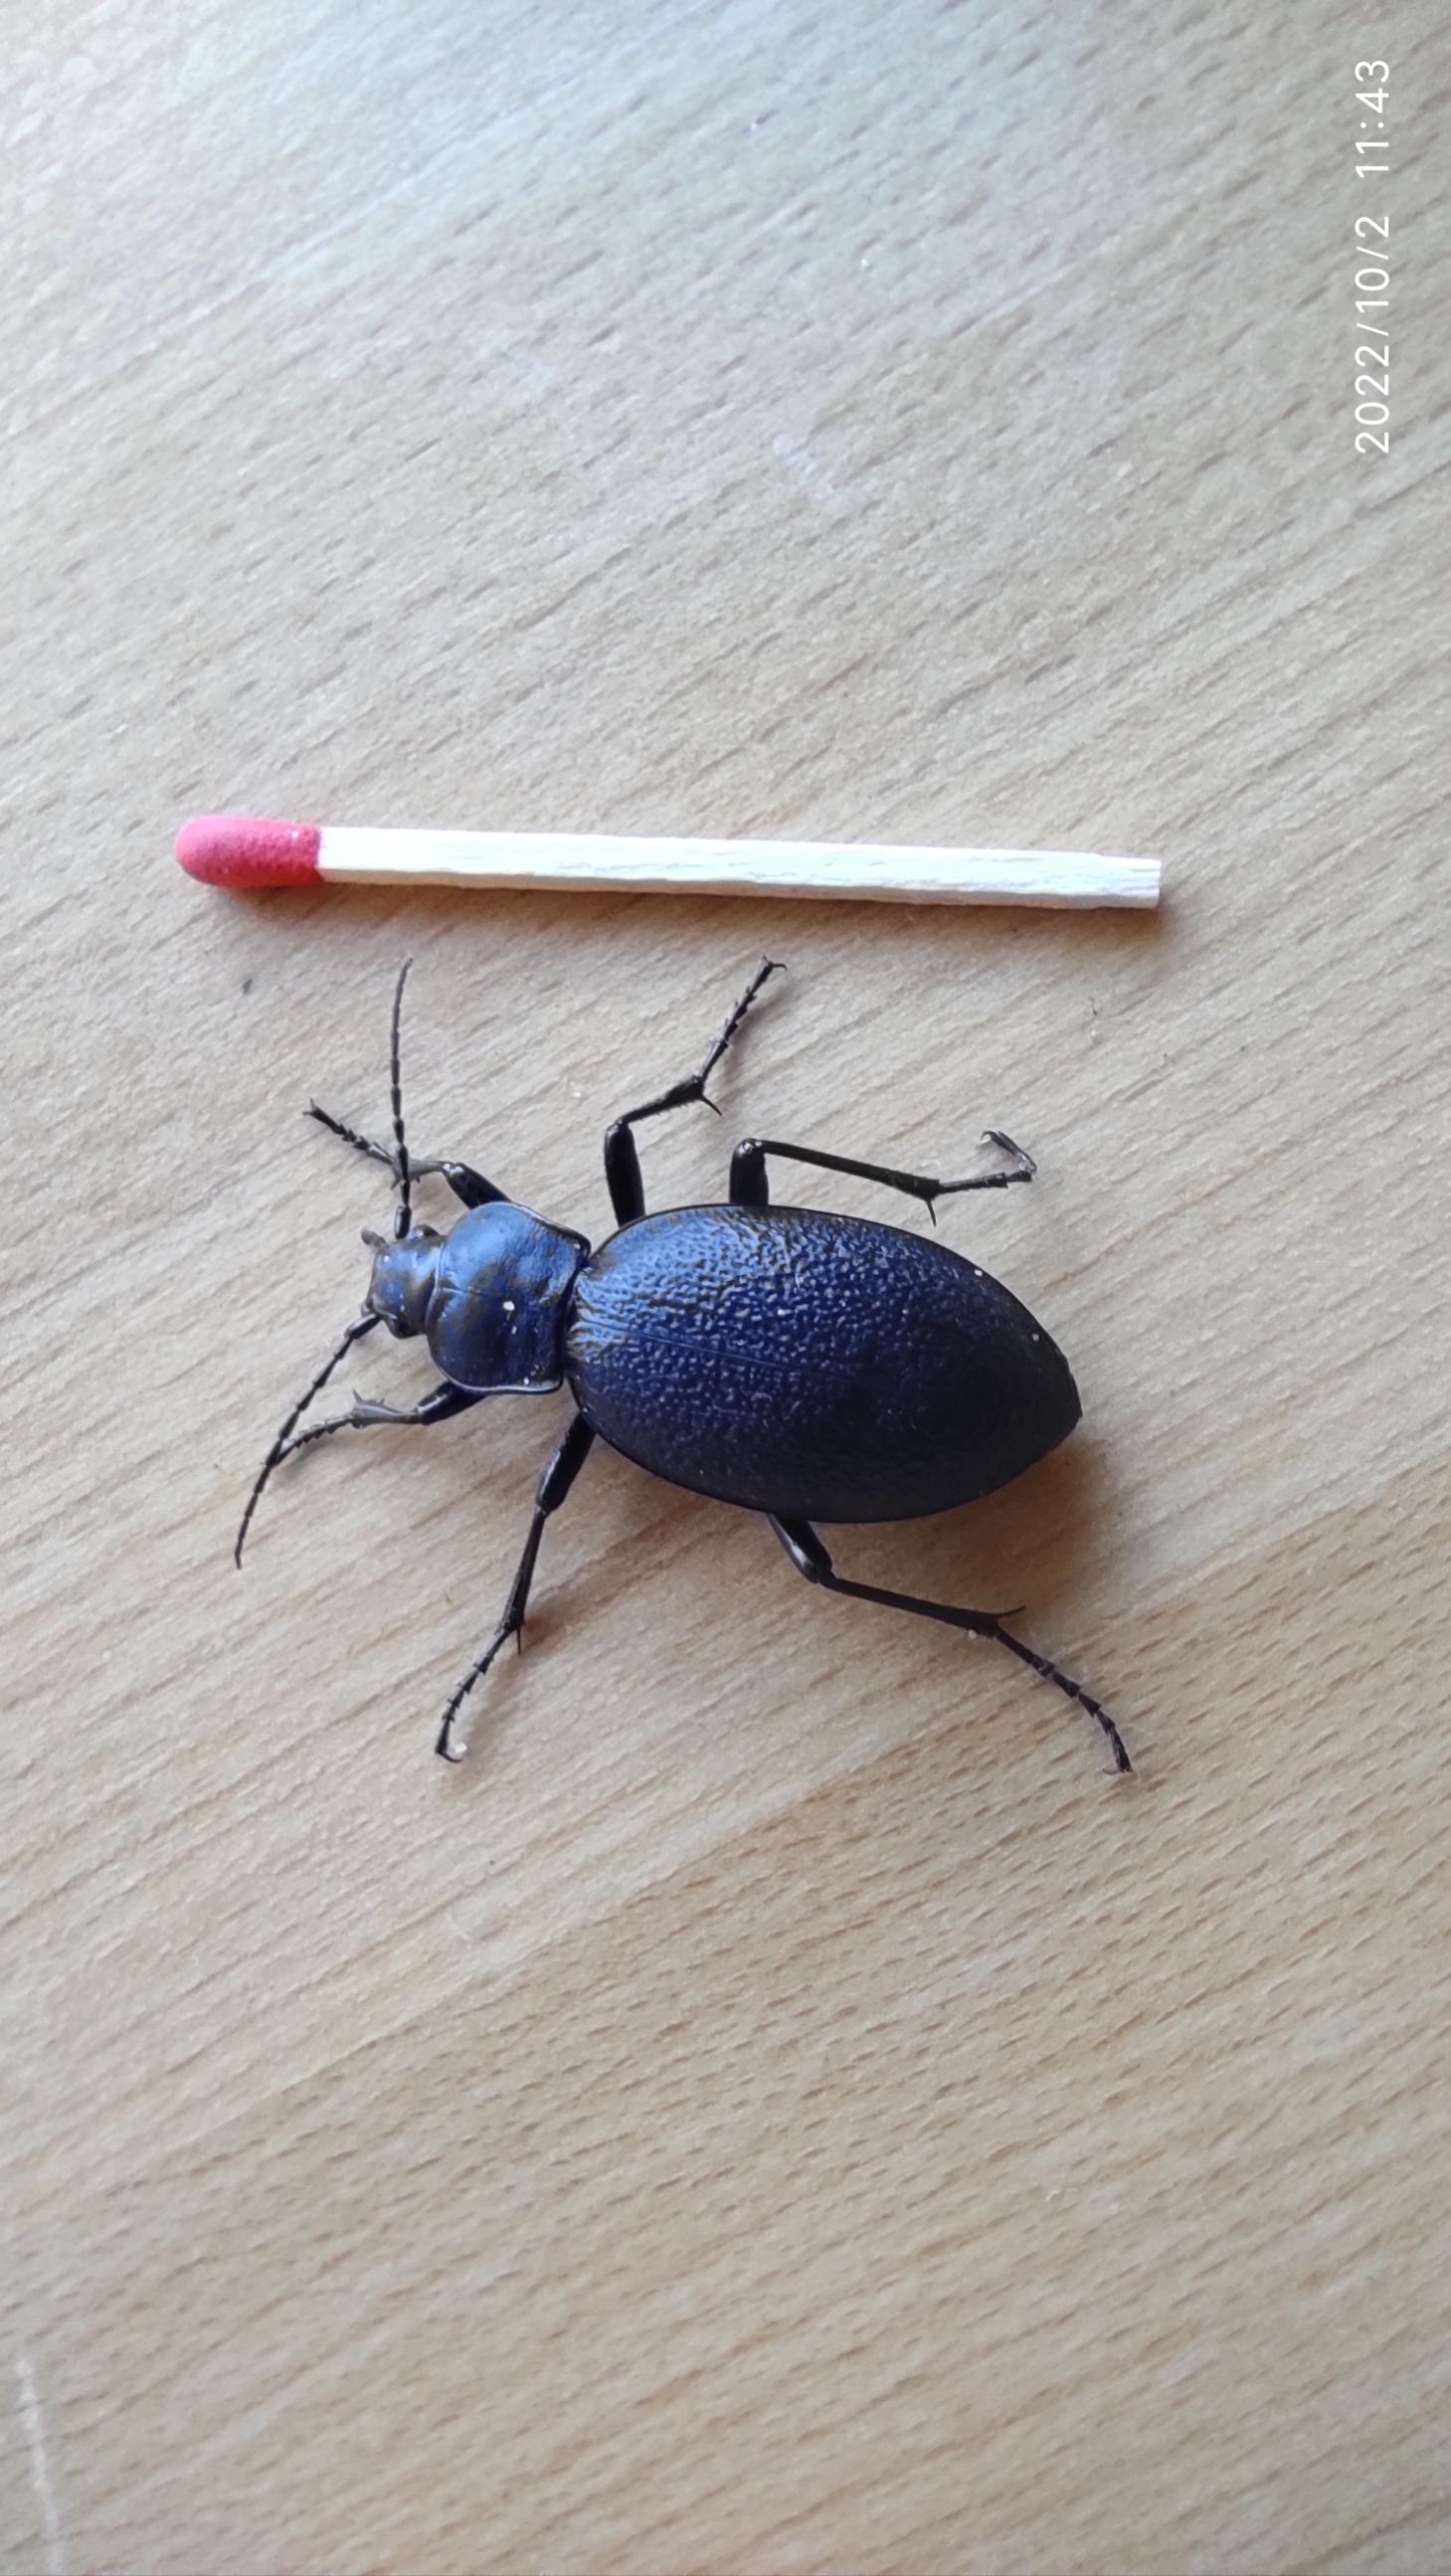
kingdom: Animalia
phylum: Arthropoda
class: Insecta
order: Coleoptera
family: Carabidae
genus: Carabus
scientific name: Carabus coriaceus
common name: Læderløber
